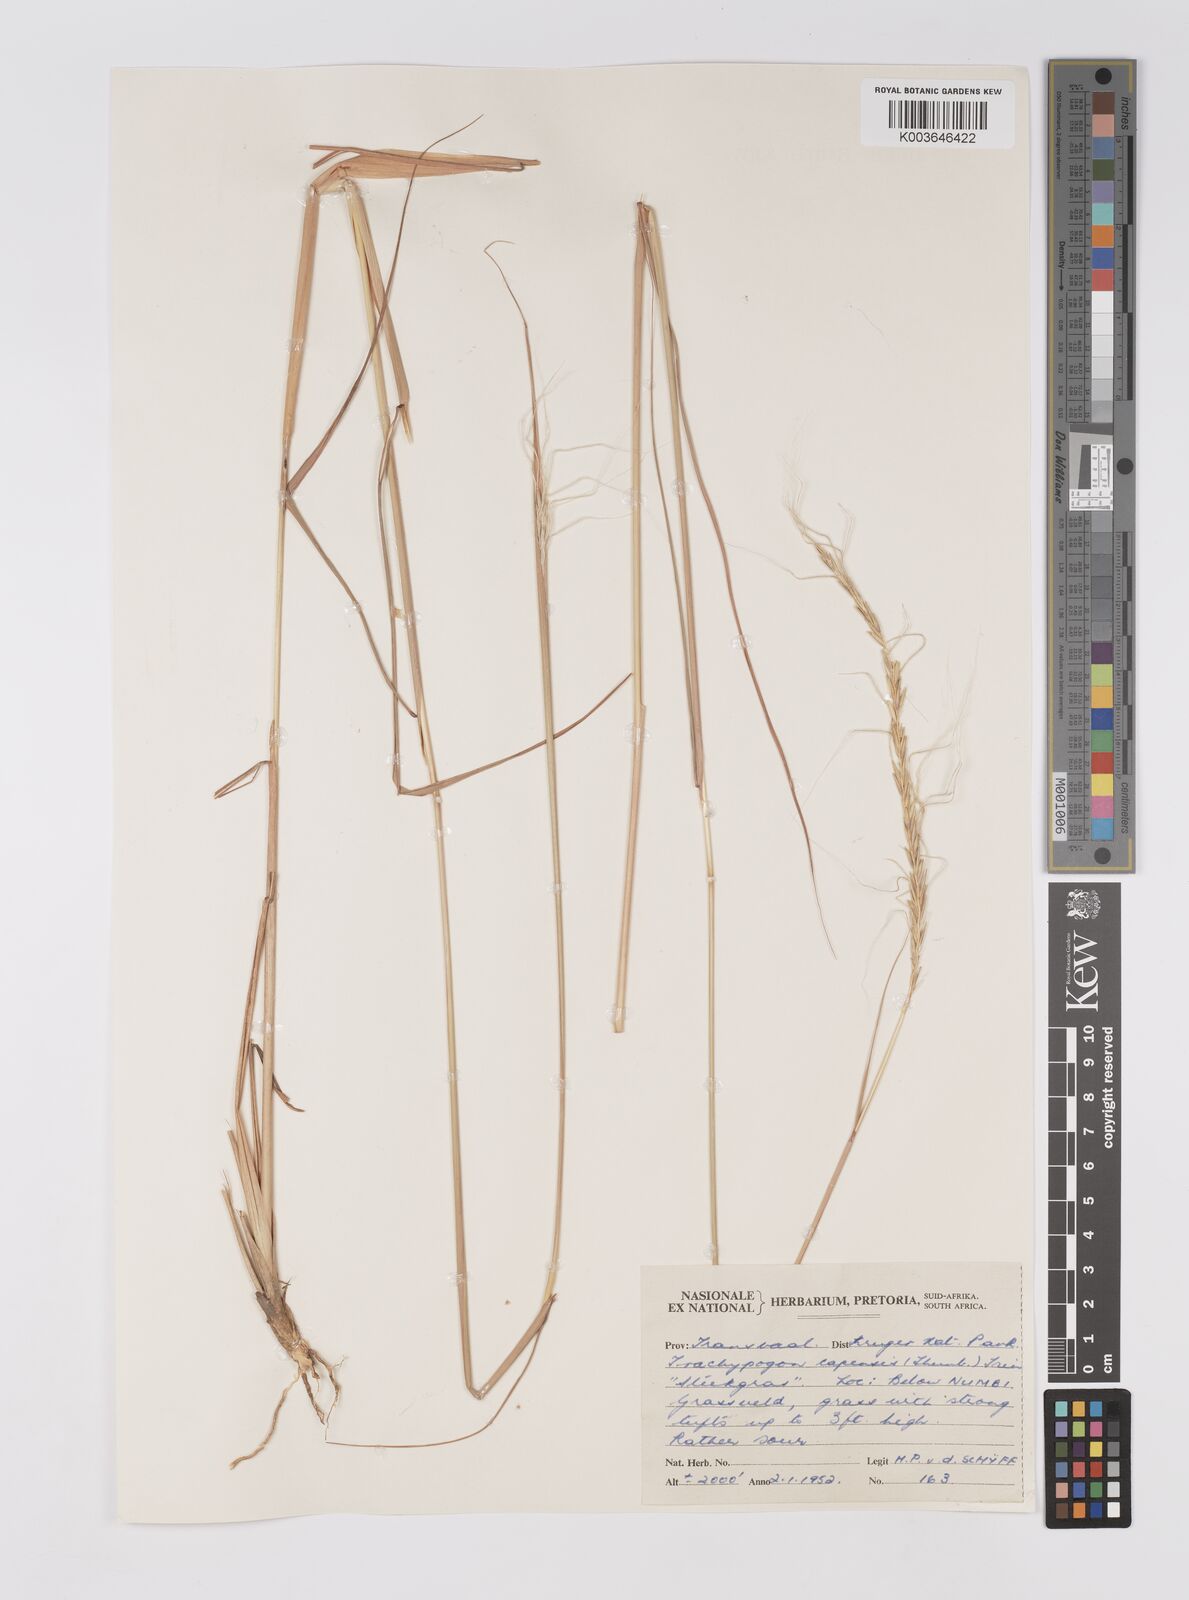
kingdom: Plantae
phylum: Tracheophyta
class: Liliopsida
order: Poales
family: Poaceae
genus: Trachypogon
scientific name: Trachypogon spicatus
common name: Crinkle-awn
